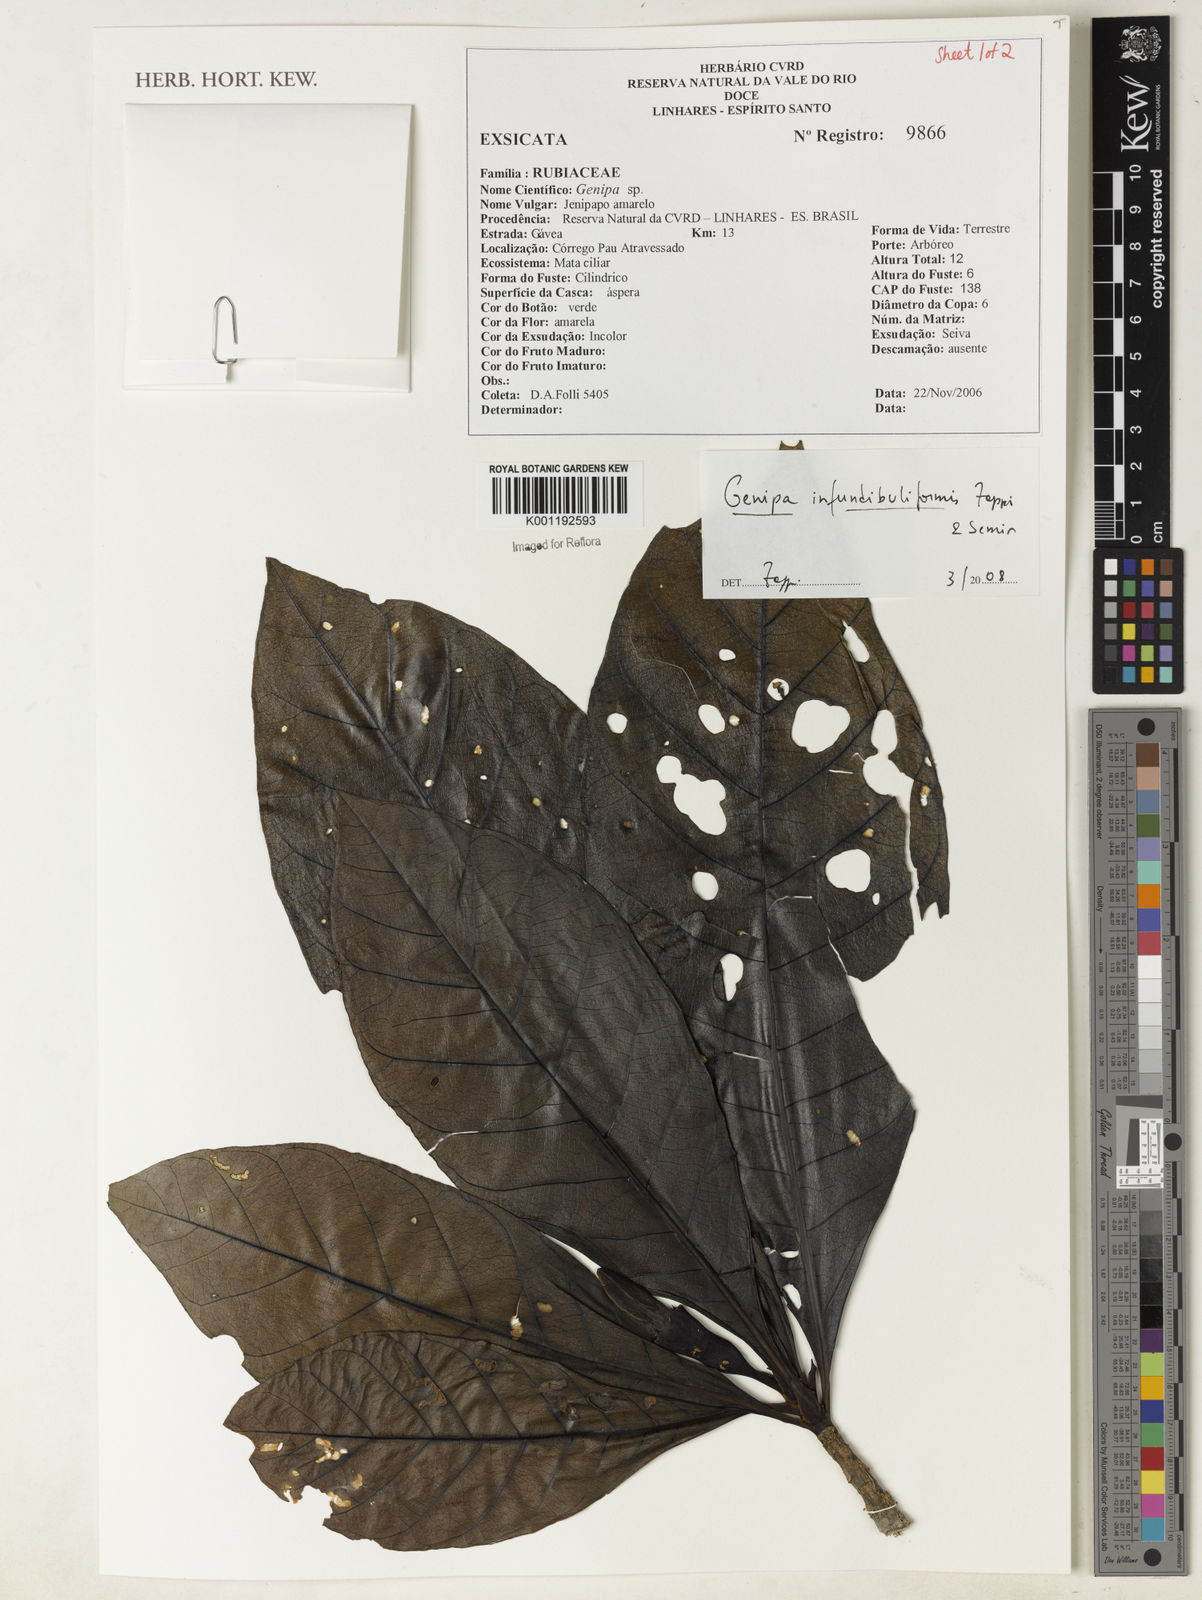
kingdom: Plantae
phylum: Tracheophyta
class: Magnoliopsida
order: Gentianales
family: Rubiaceae
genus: Genipa
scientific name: Genipa infundibuliformis
